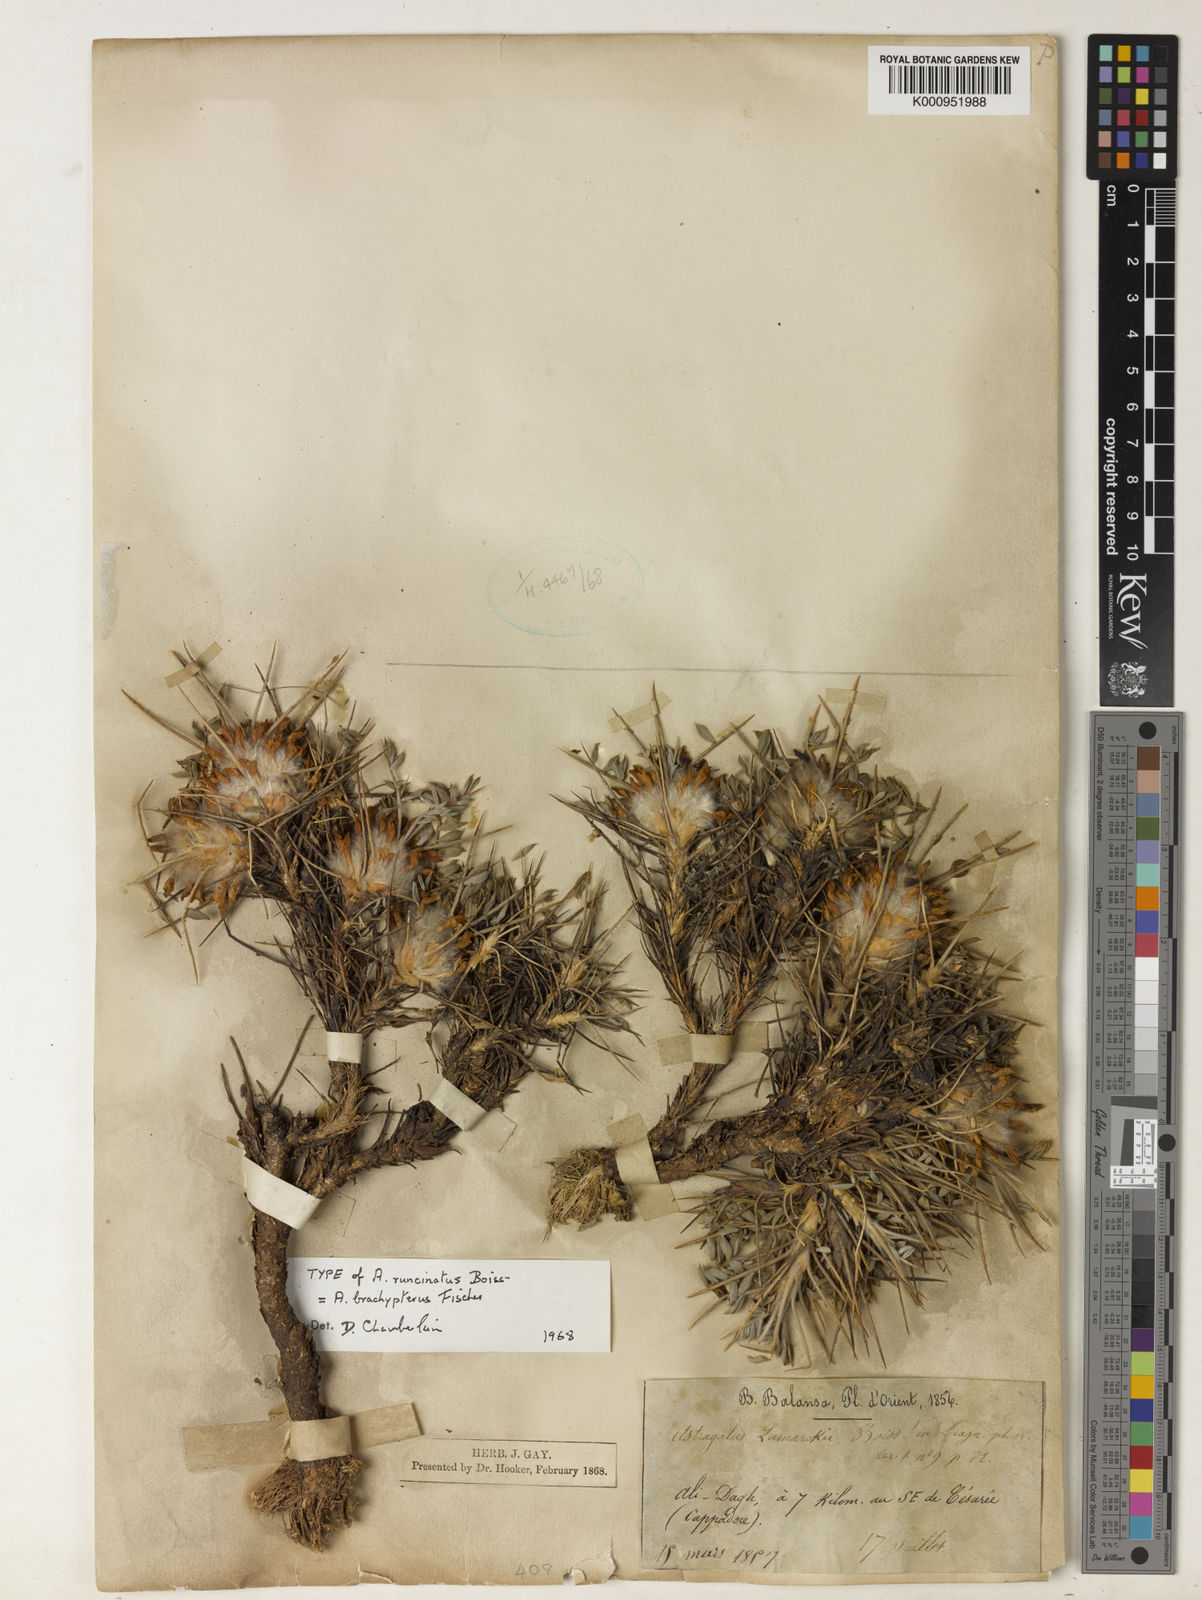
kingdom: Plantae
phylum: Tracheophyta
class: Magnoliopsida
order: Fabales
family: Fabaceae
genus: Astragalus
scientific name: Astragalus condensatus
